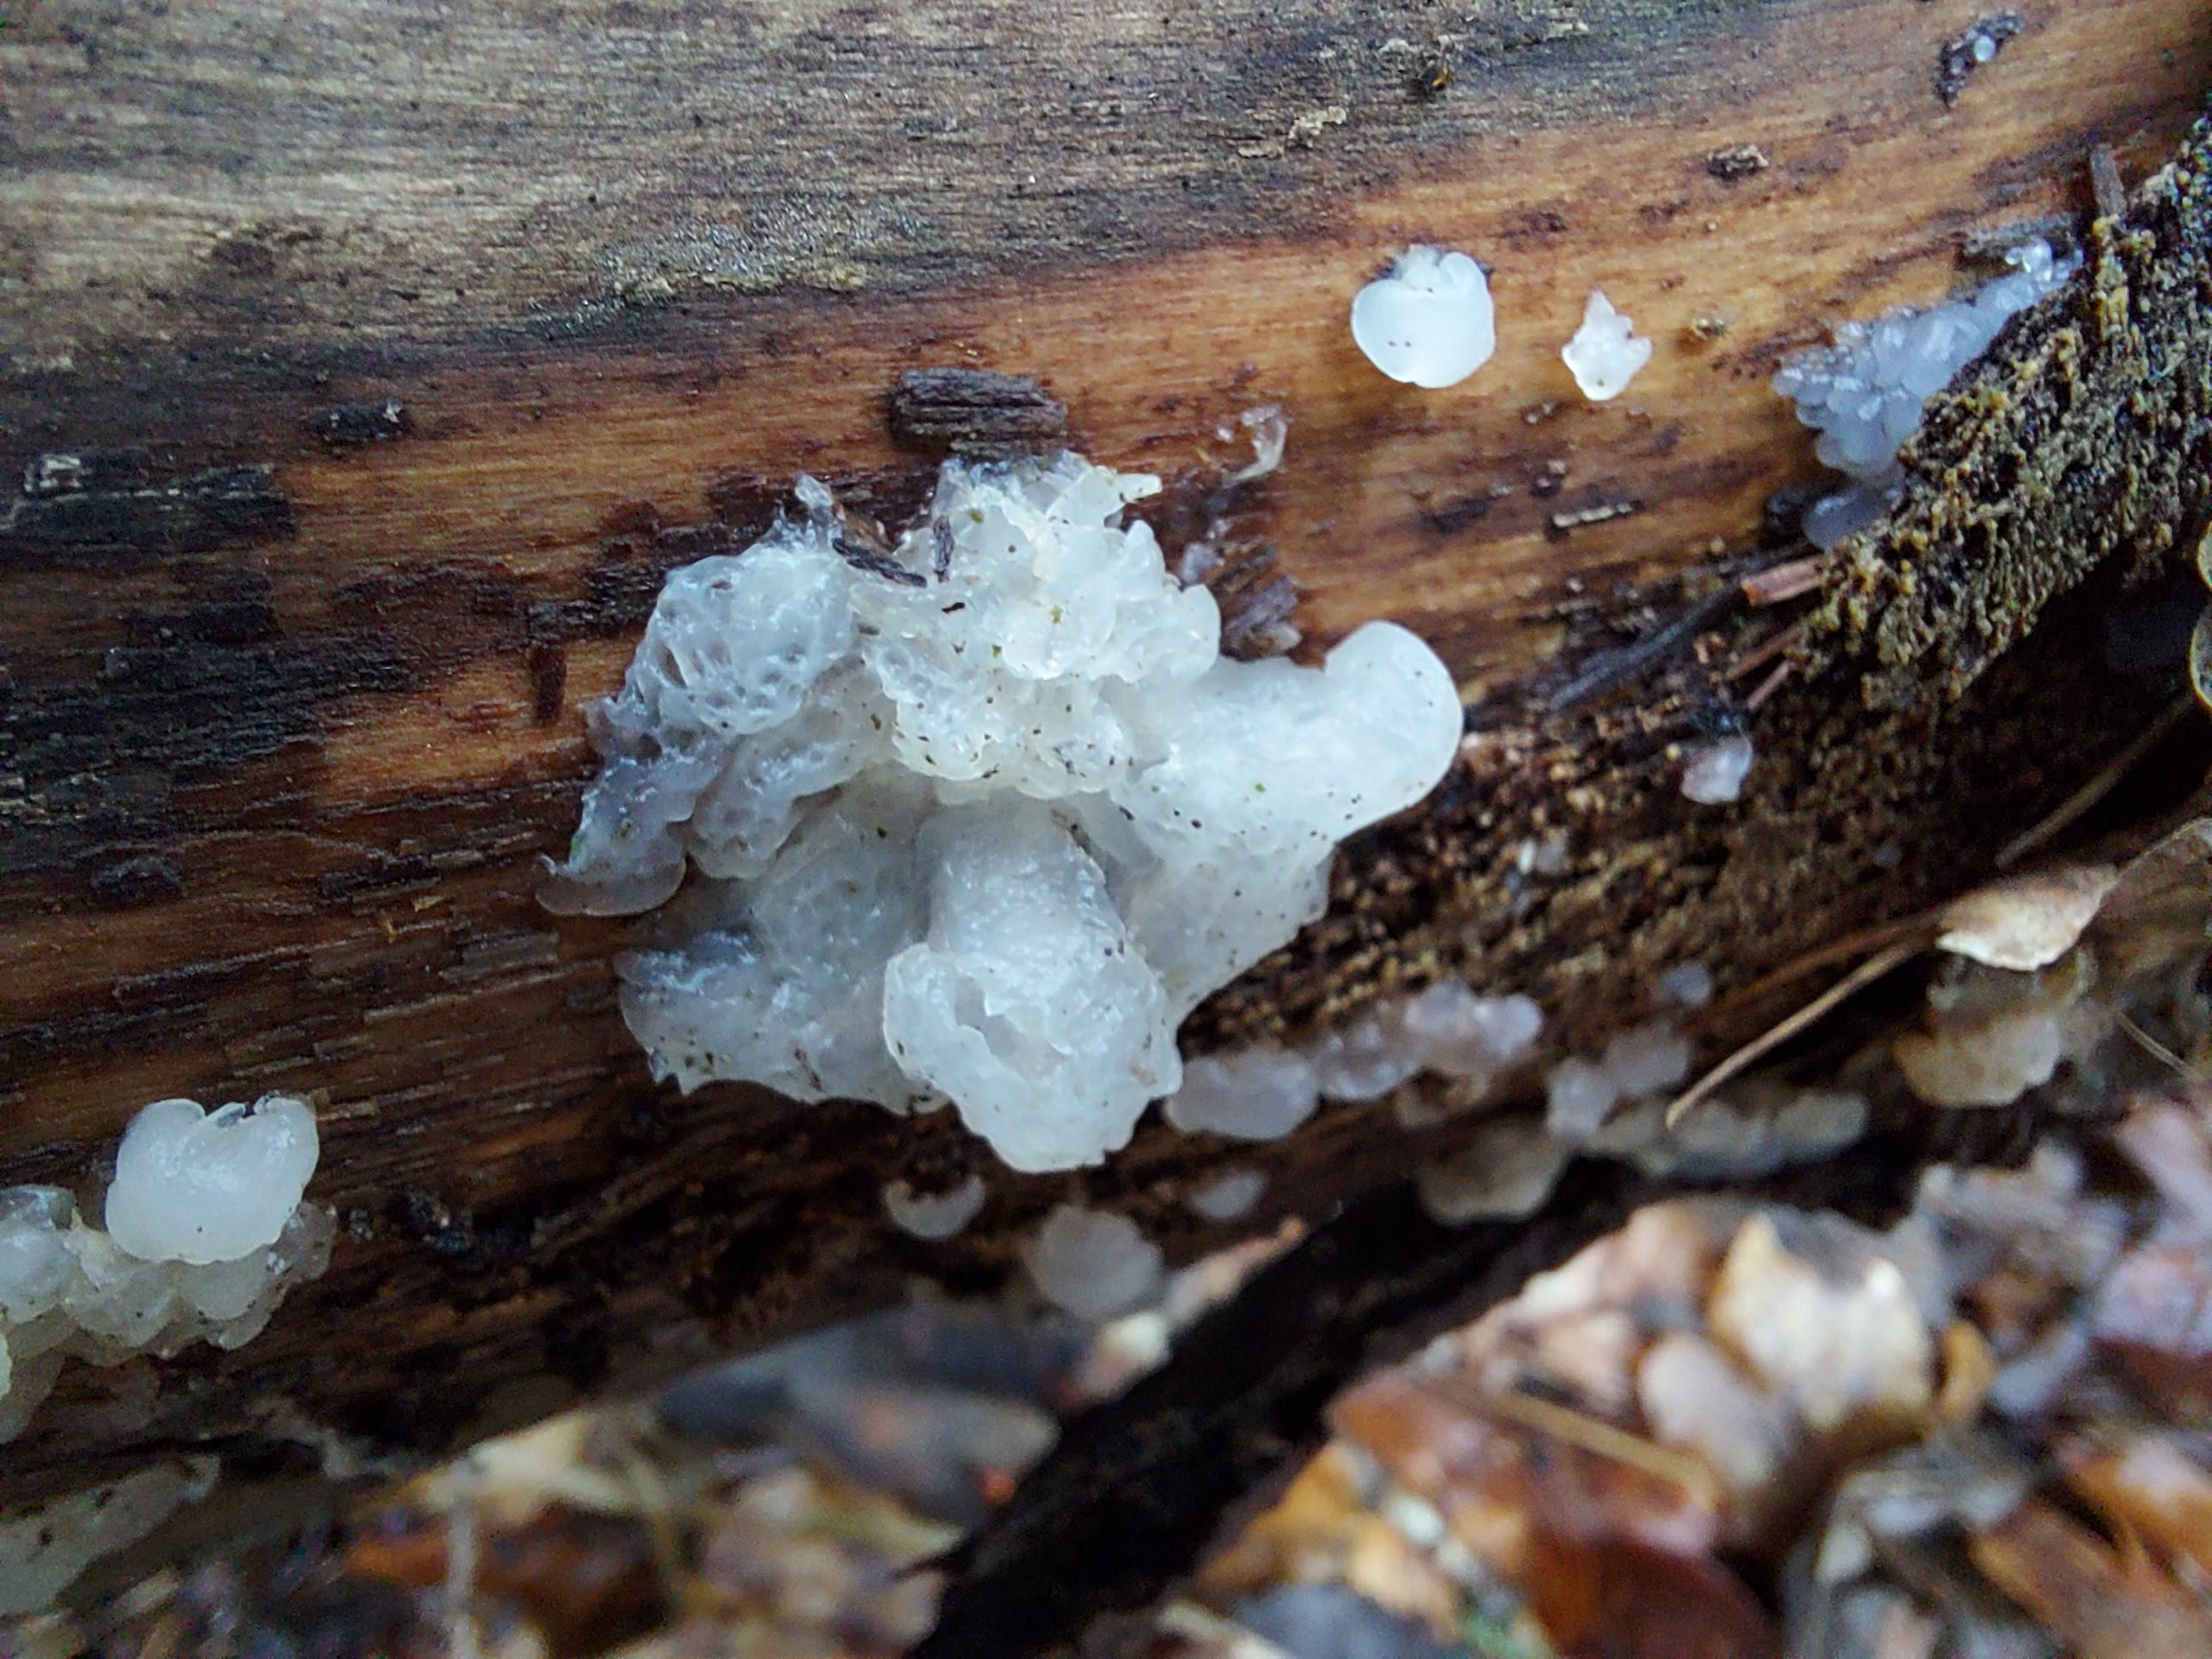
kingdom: Fungi
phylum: Basidiomycota
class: Agaricomycetes
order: Auriculariales
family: Hyaloriaceae
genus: Myxarium
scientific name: Myxarium nucleatum
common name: klar bævretop
